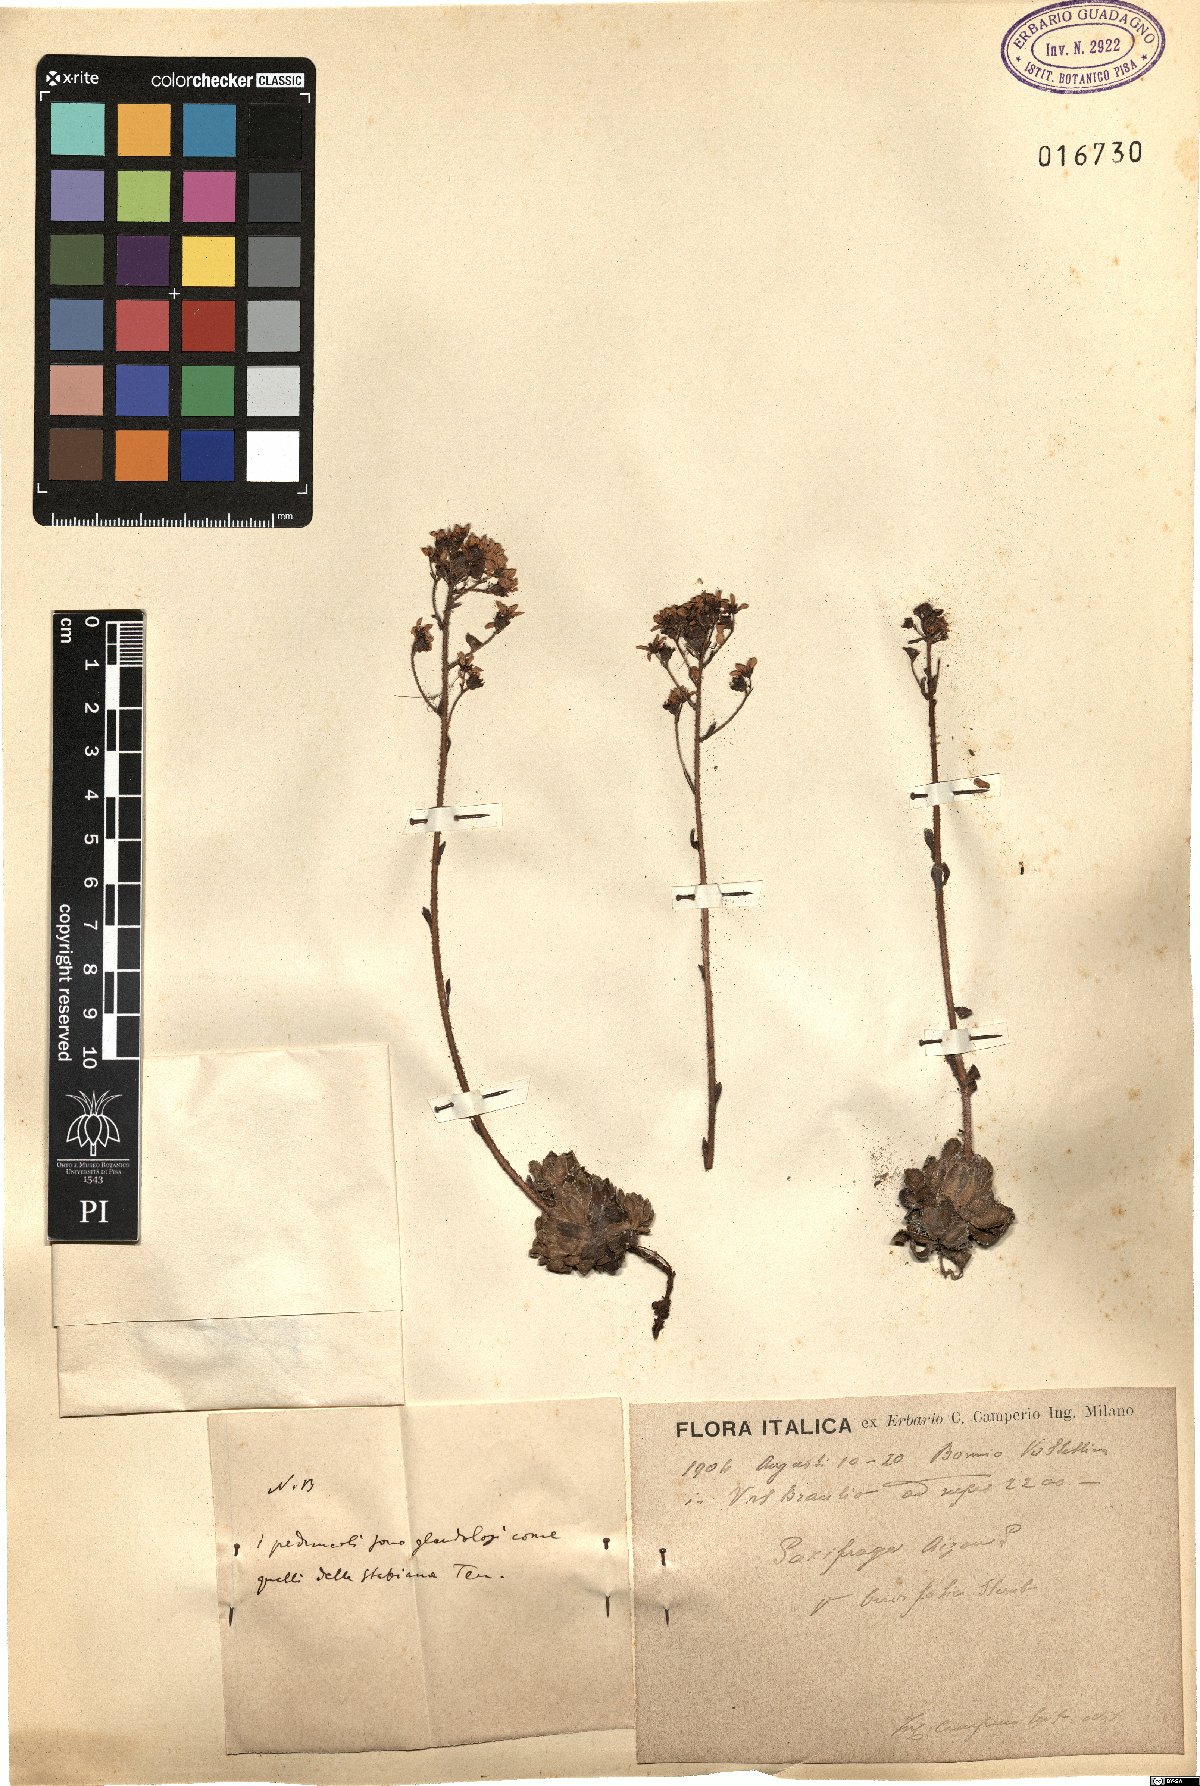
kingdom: Plantae
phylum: Tracheophyta
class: Magnoliopsida
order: Saxifragales
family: Saxifragaceae
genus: Saxifraga
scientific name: Saxifraga paniculata
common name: Livelong saxifrage
